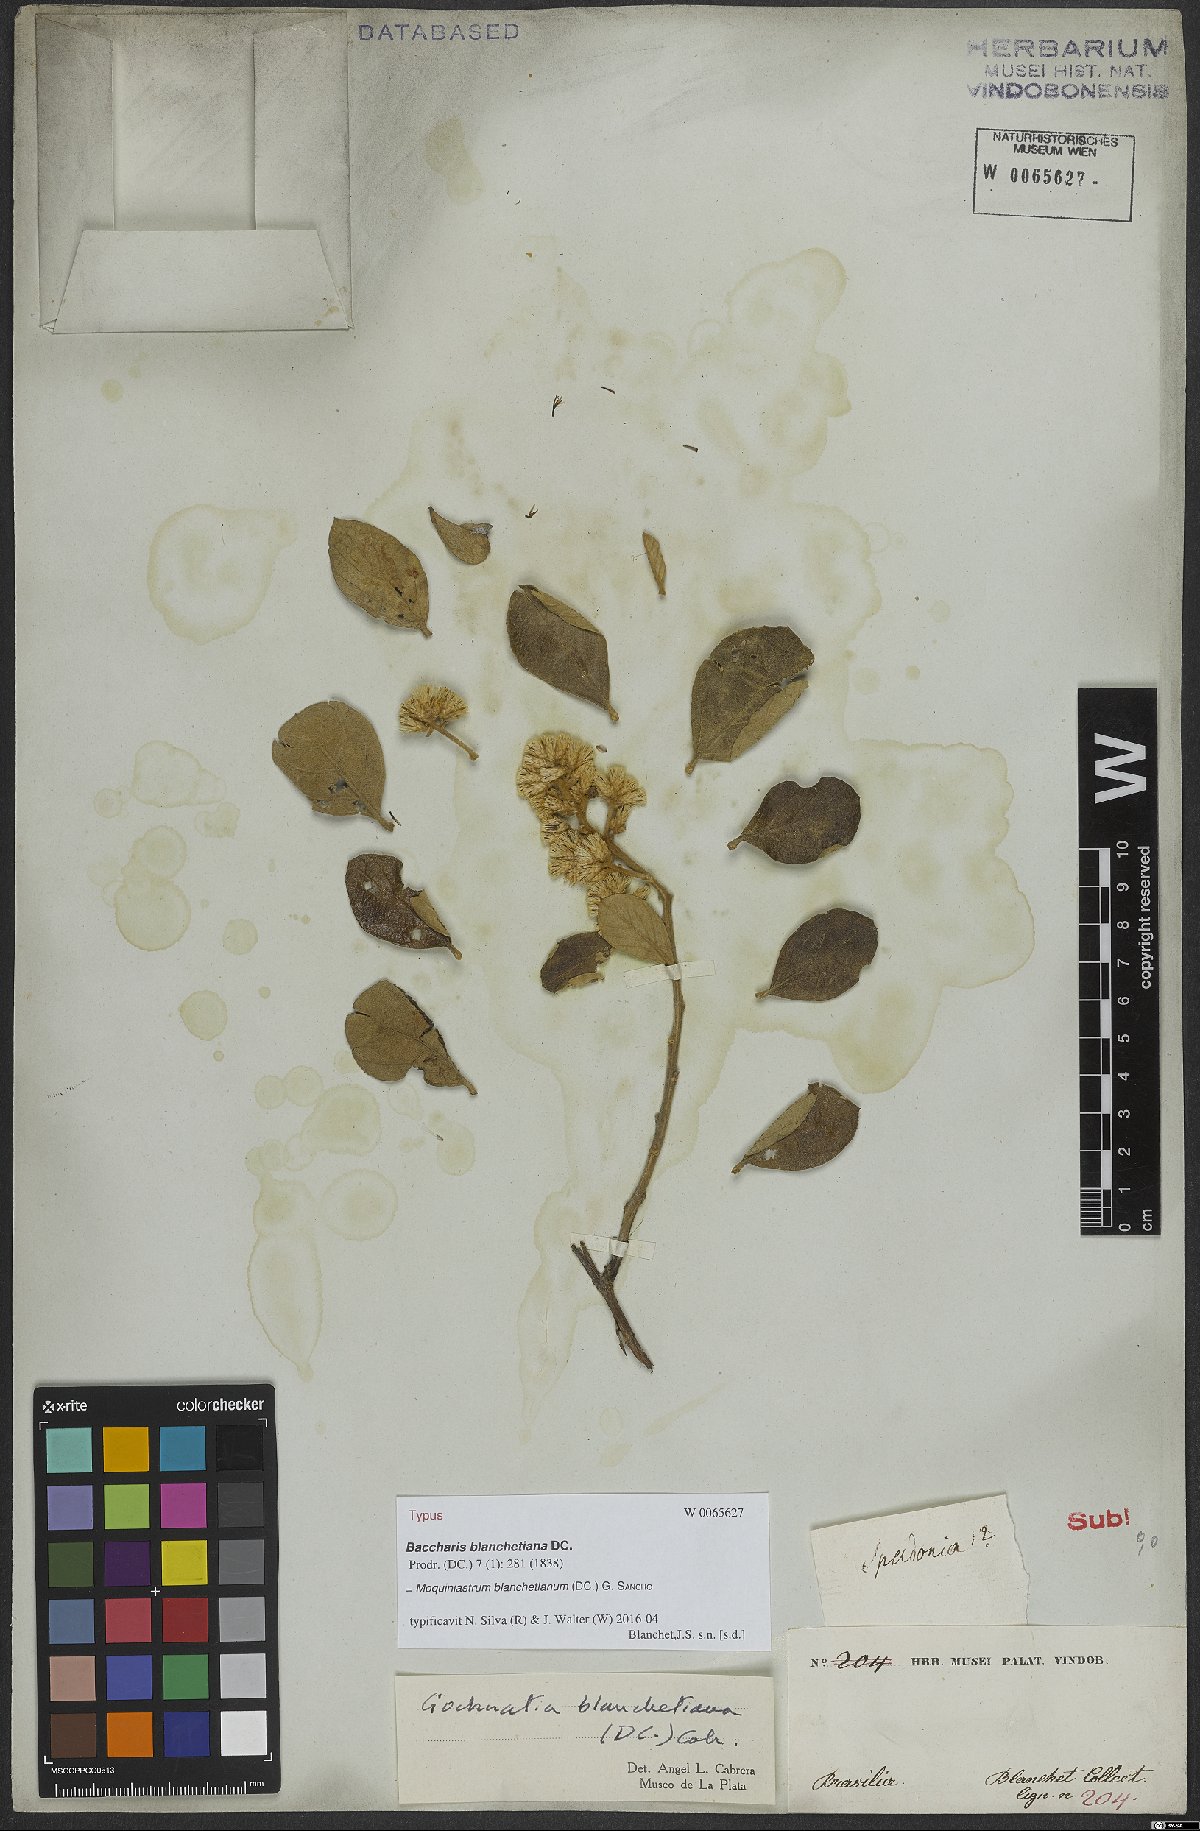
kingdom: Plantae
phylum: Tracheophyta
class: Magnoliopsida
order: Asterales
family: Asteraceae
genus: Moquiniastrum
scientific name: Moquiniastrum blanchetianum
